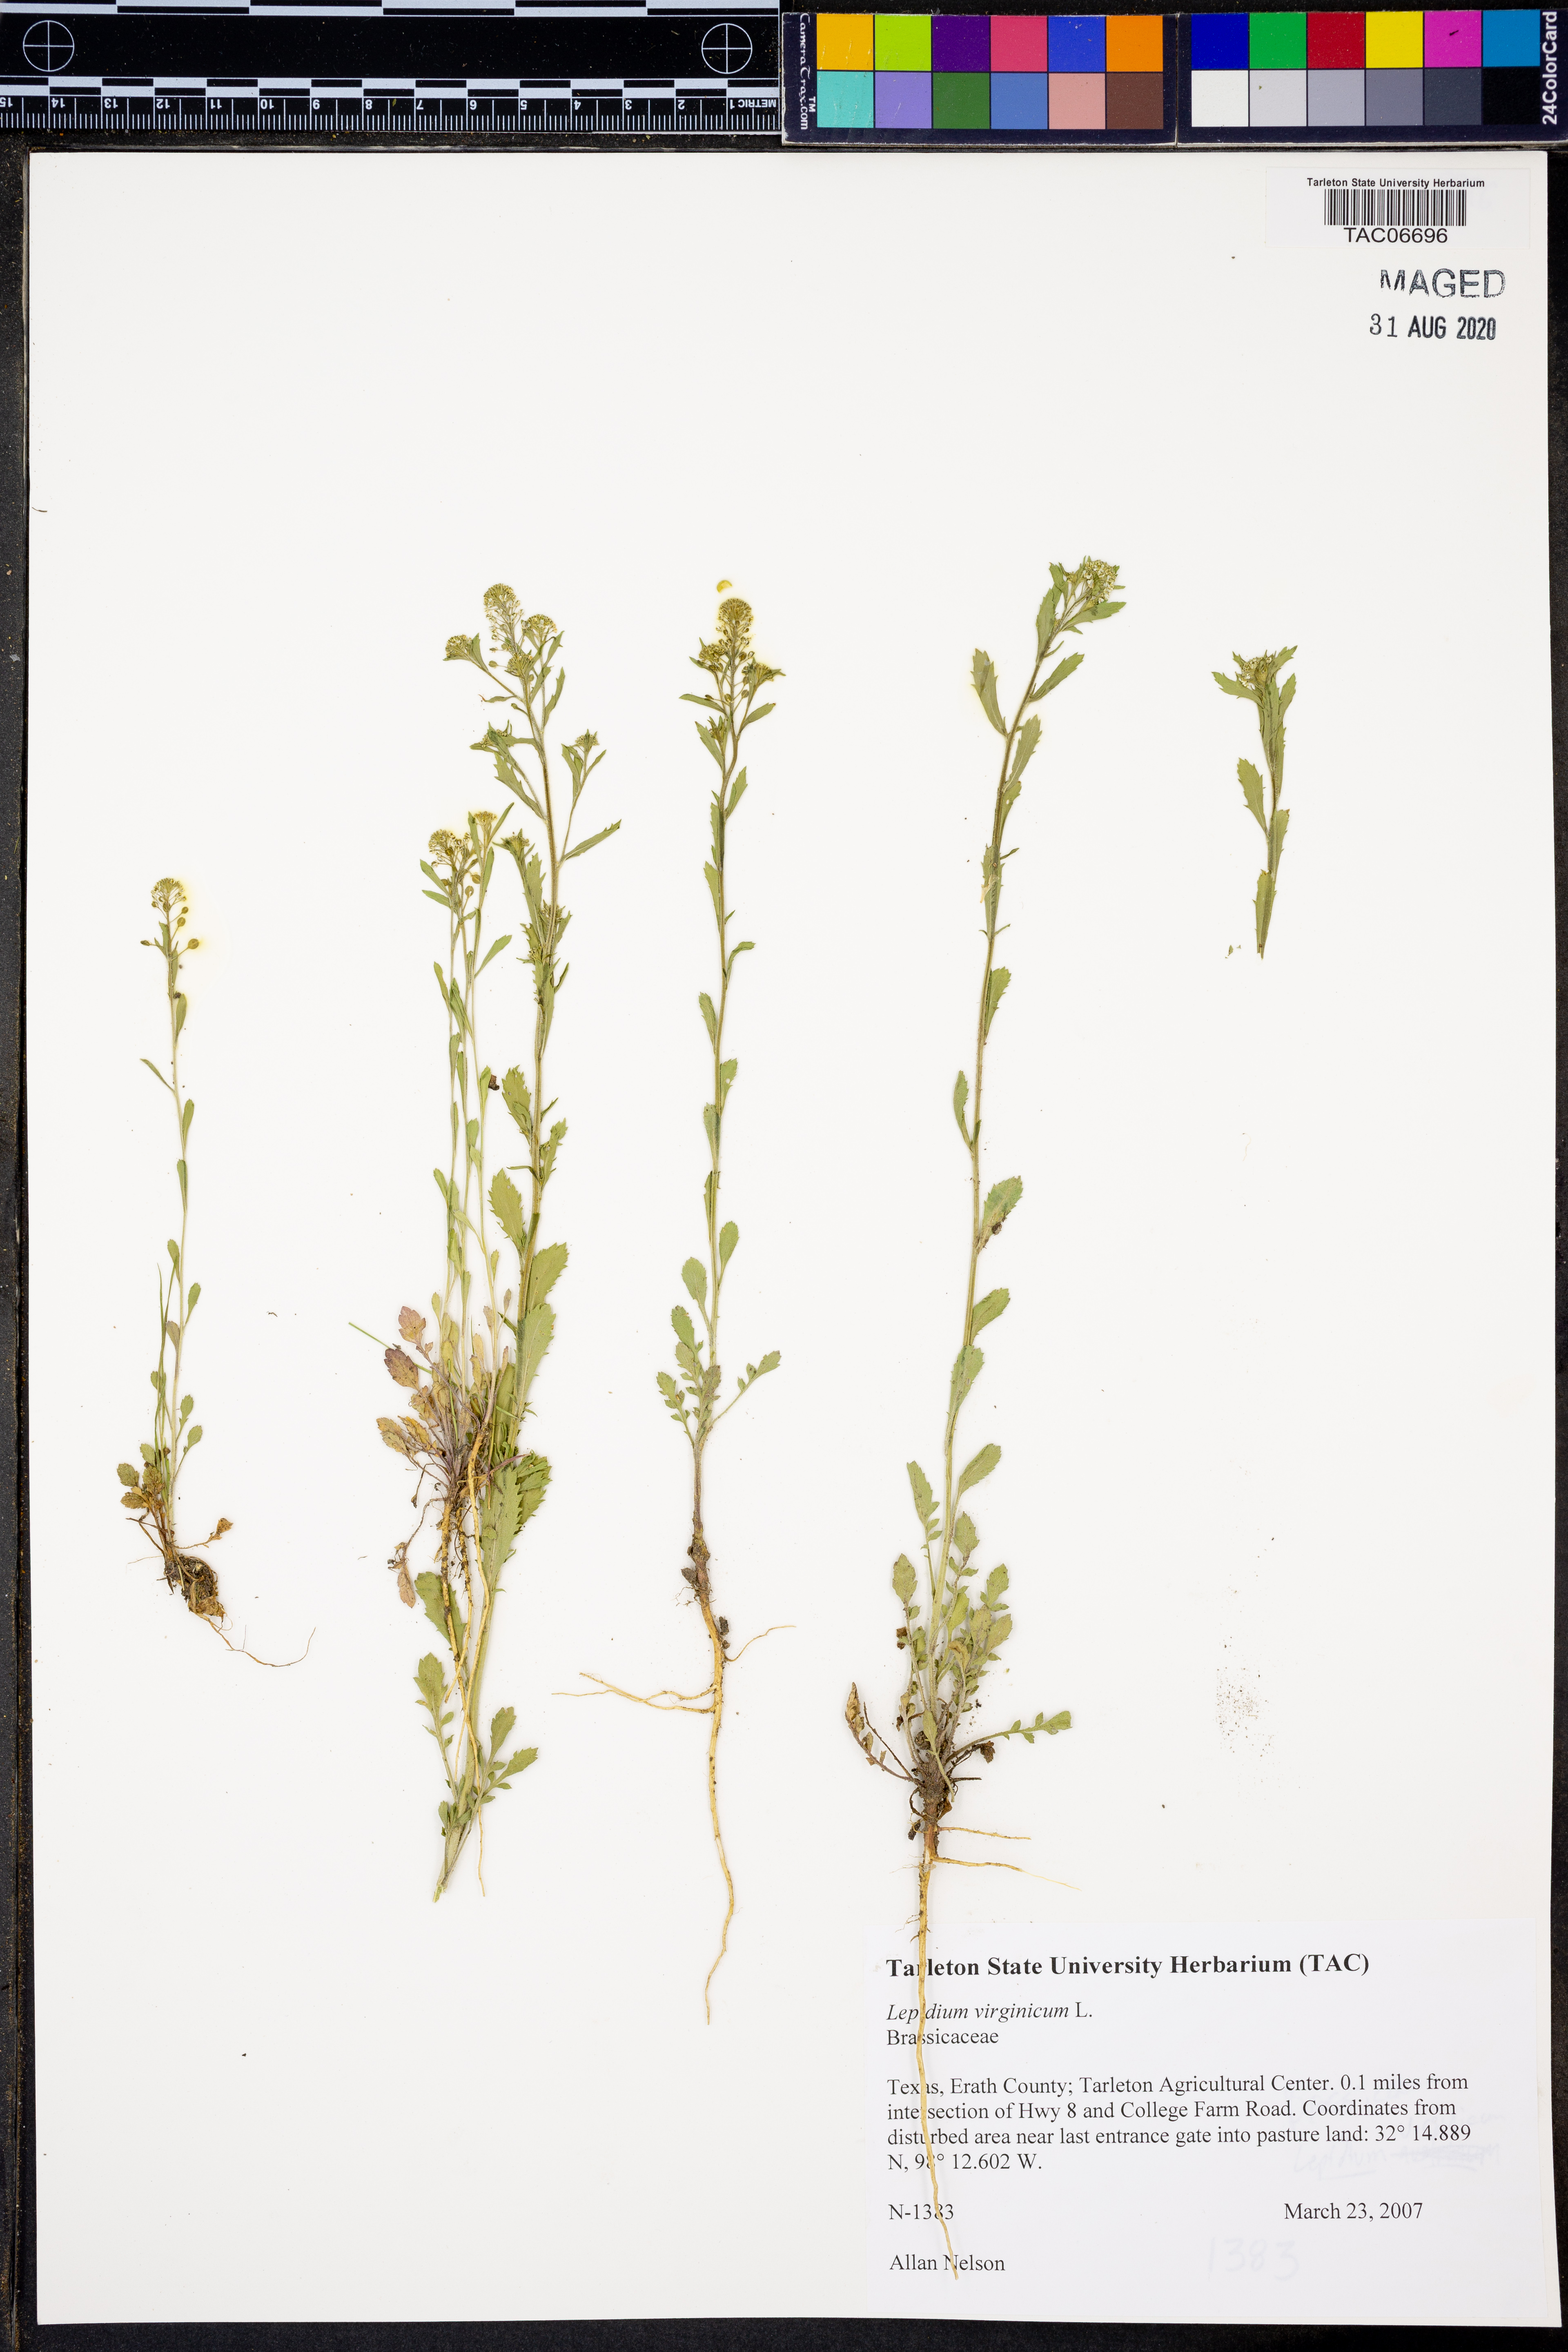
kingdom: Plantae
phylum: Tracheophyta
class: Magnoliopsida
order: Brassicales
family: Brassicaceae
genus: Lepidium
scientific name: Lepidium virginicum
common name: Least pepperwort
